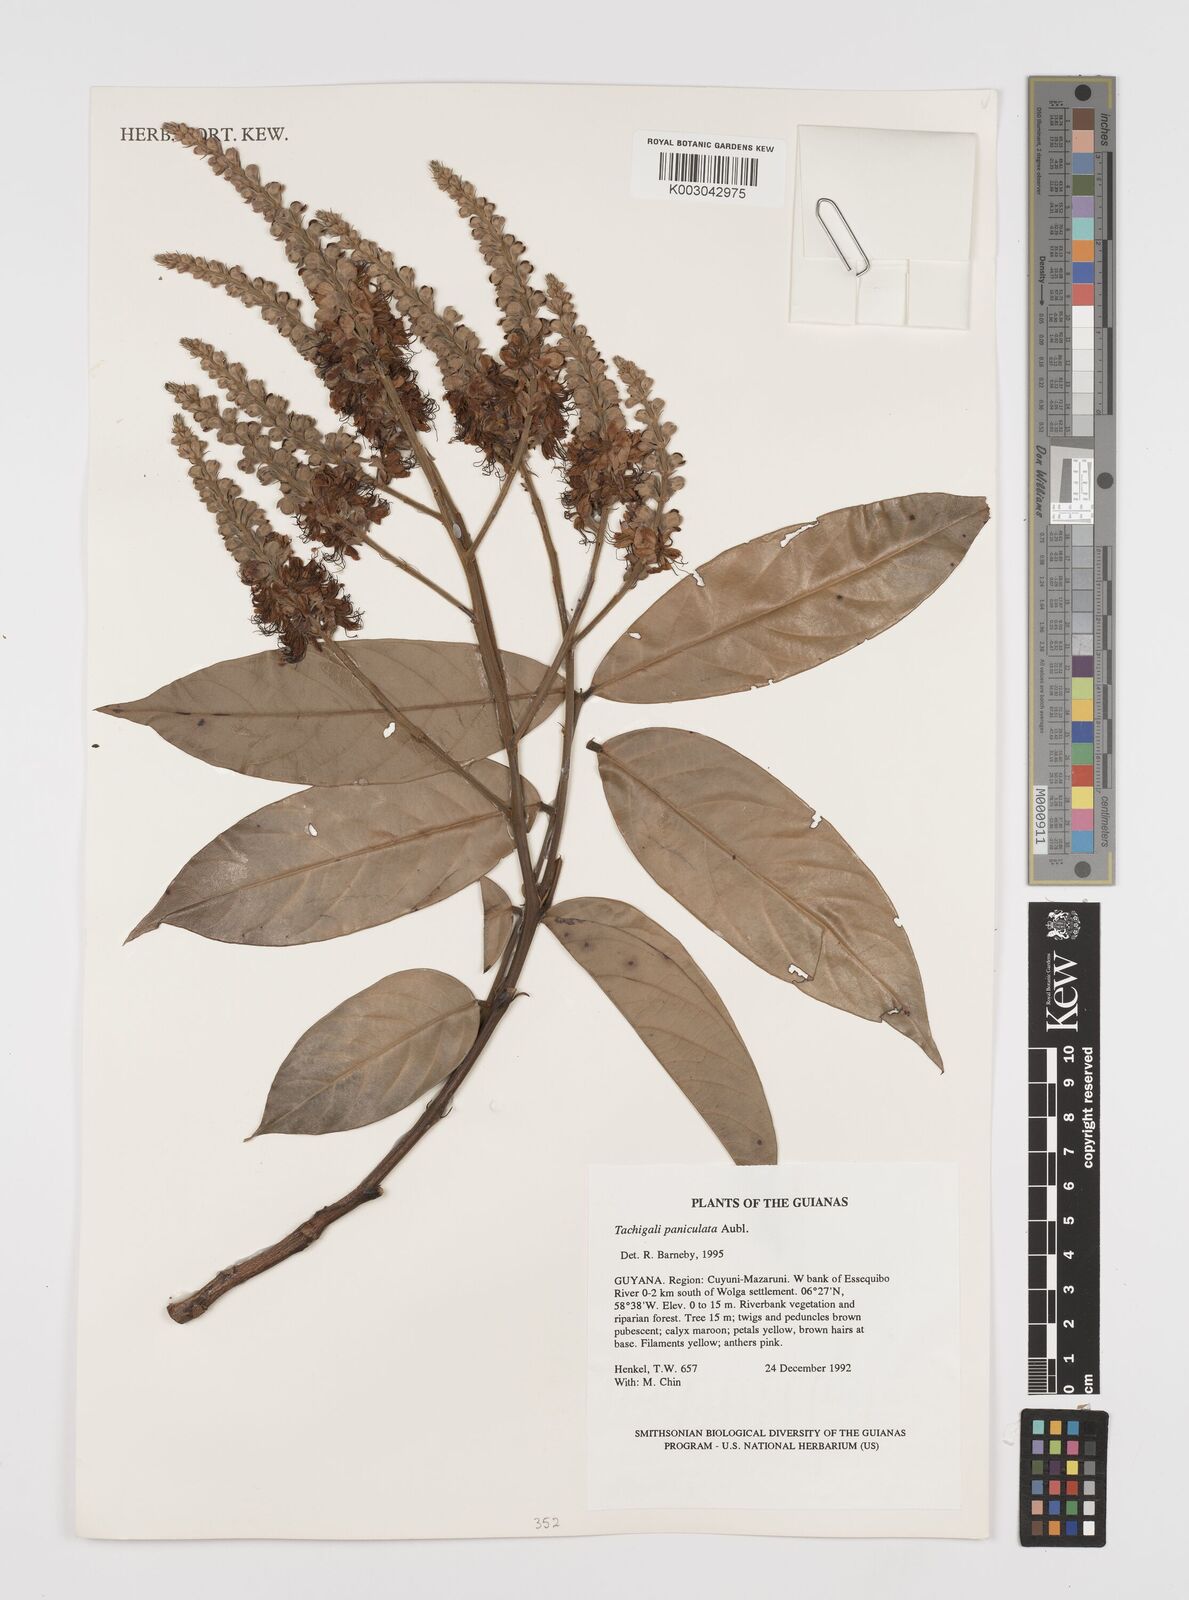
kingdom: Plantae
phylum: Tracheophyta
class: Magnoliopsida
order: Fabales
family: Fabaceae
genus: Tachigali
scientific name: Tachigali paniculata
